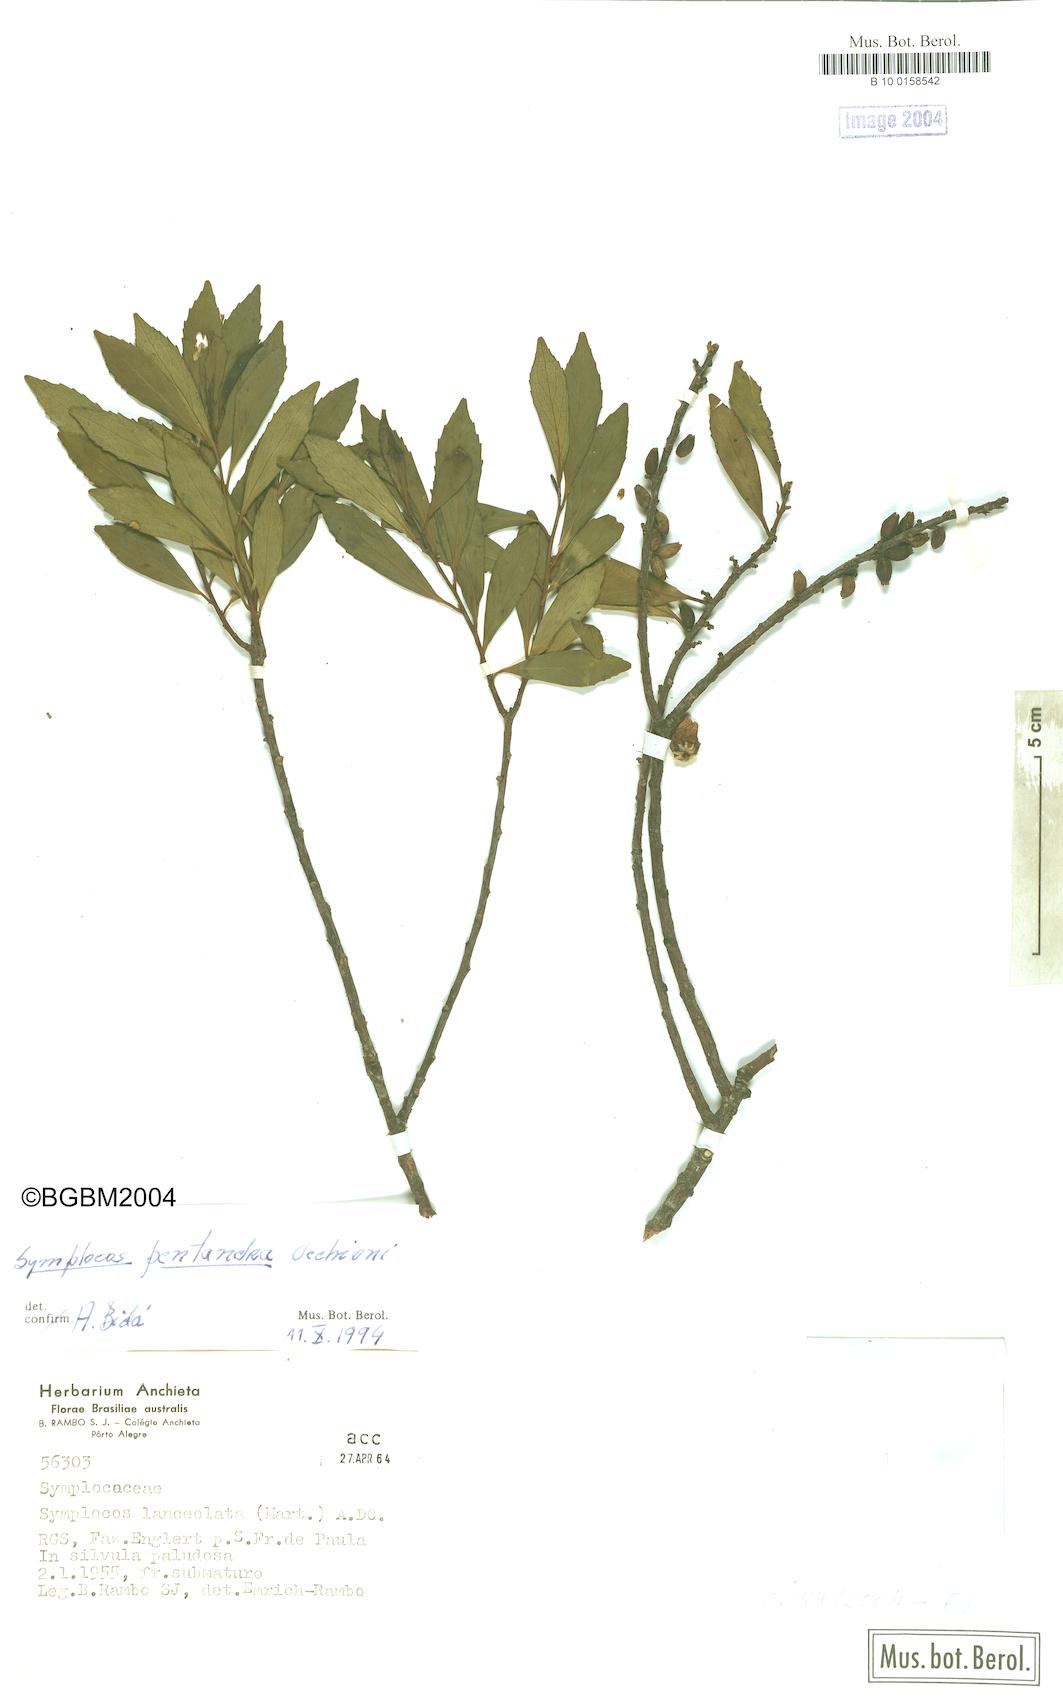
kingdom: Plantae
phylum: Tracheophyta
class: Magnoliopsida
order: Ericales
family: Symplocaceae
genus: Symplocos
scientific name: Symplocos pentandra
